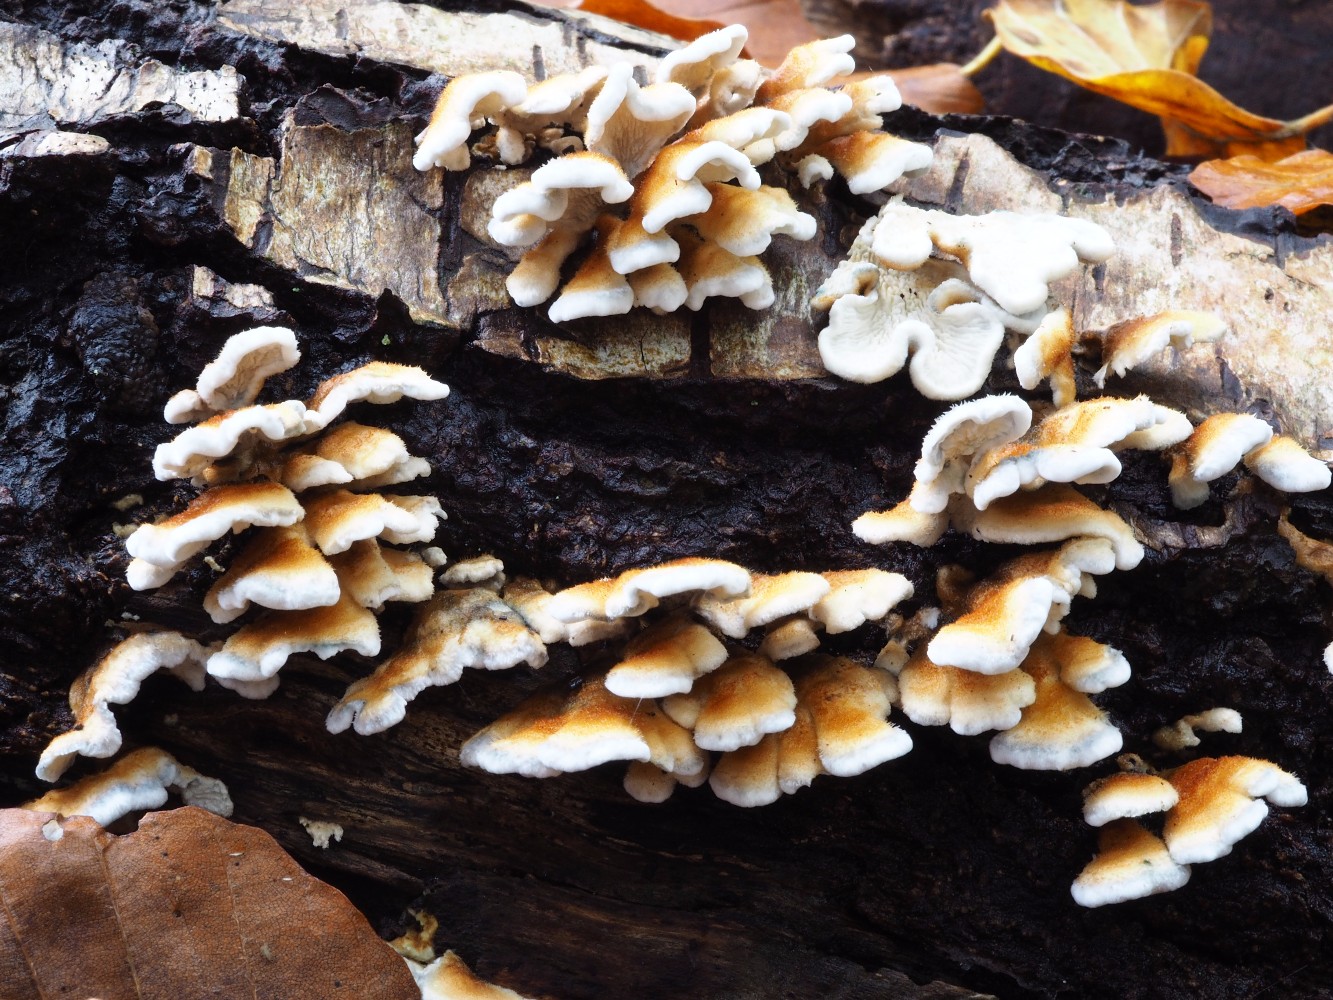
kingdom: Fungi
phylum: Basidiomycota
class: Agaricomycetes
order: Amylocorticiales
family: Amylocorticiaceae
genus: Plicaturopsis
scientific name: Plicaturopsis crispa
